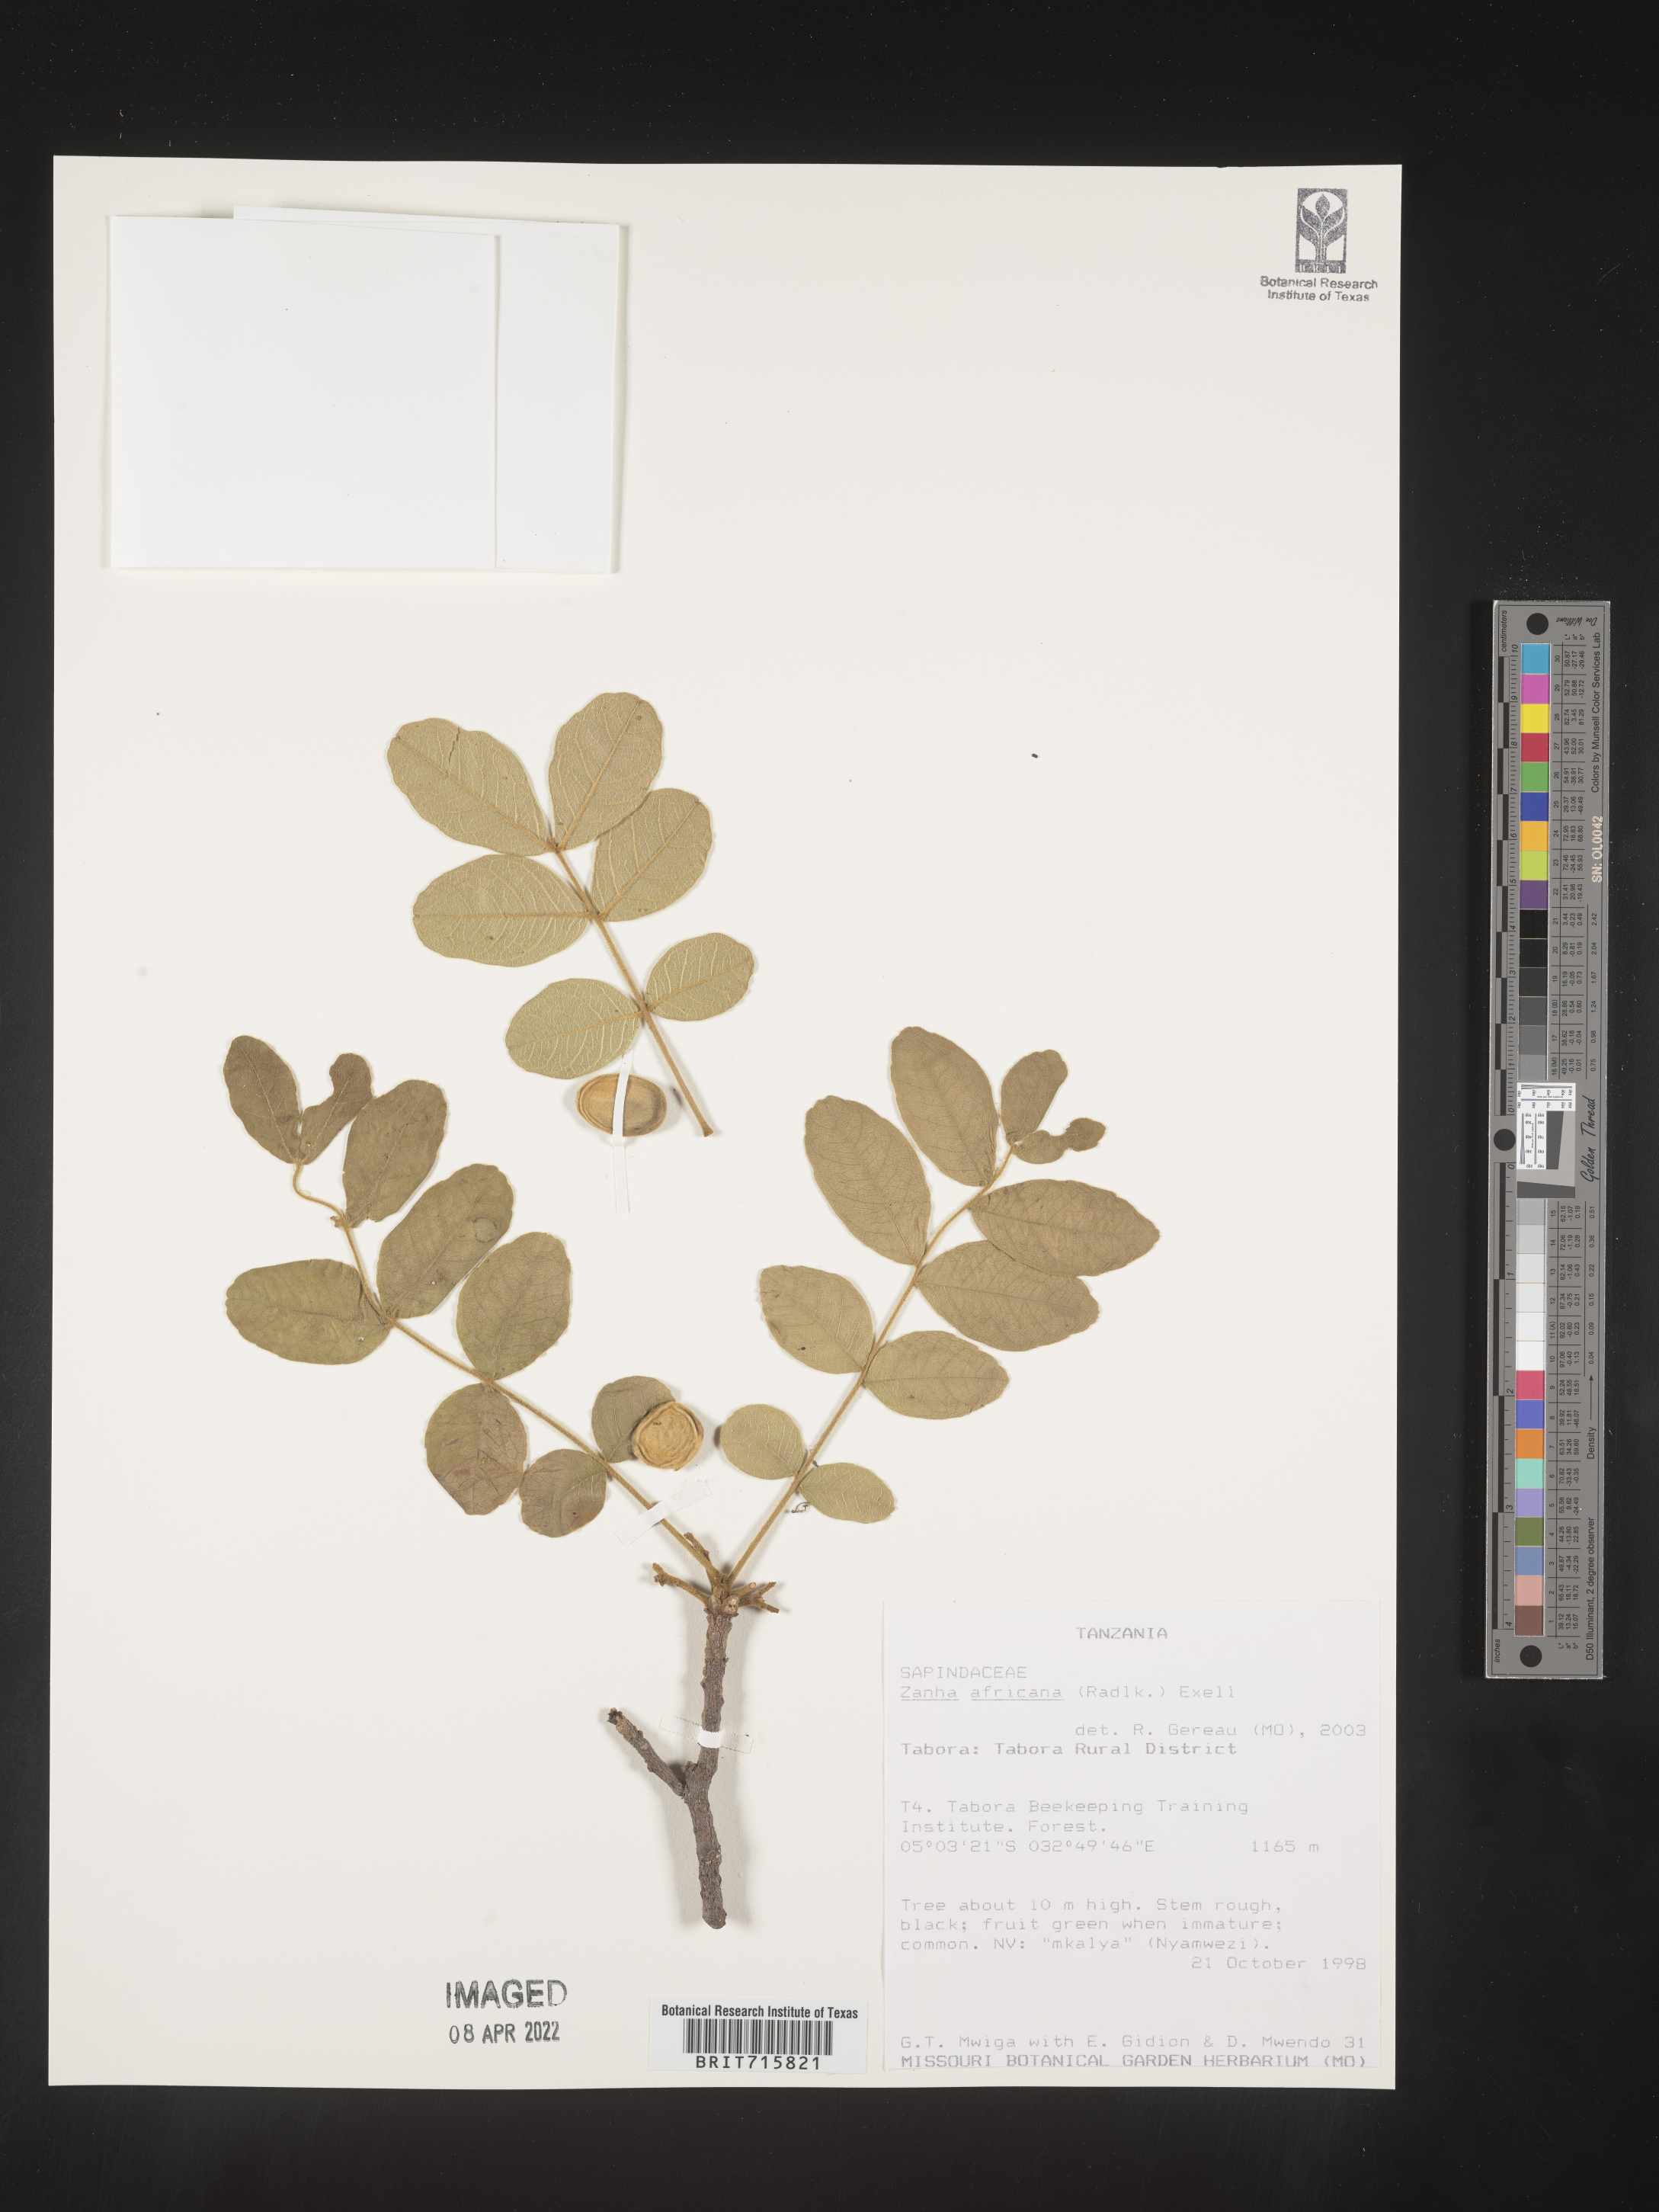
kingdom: Plantae
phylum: Tracheophyta
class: Magnoliopsida
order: Sapindales
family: Sapindaceae
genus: Zanha
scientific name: Zanha
